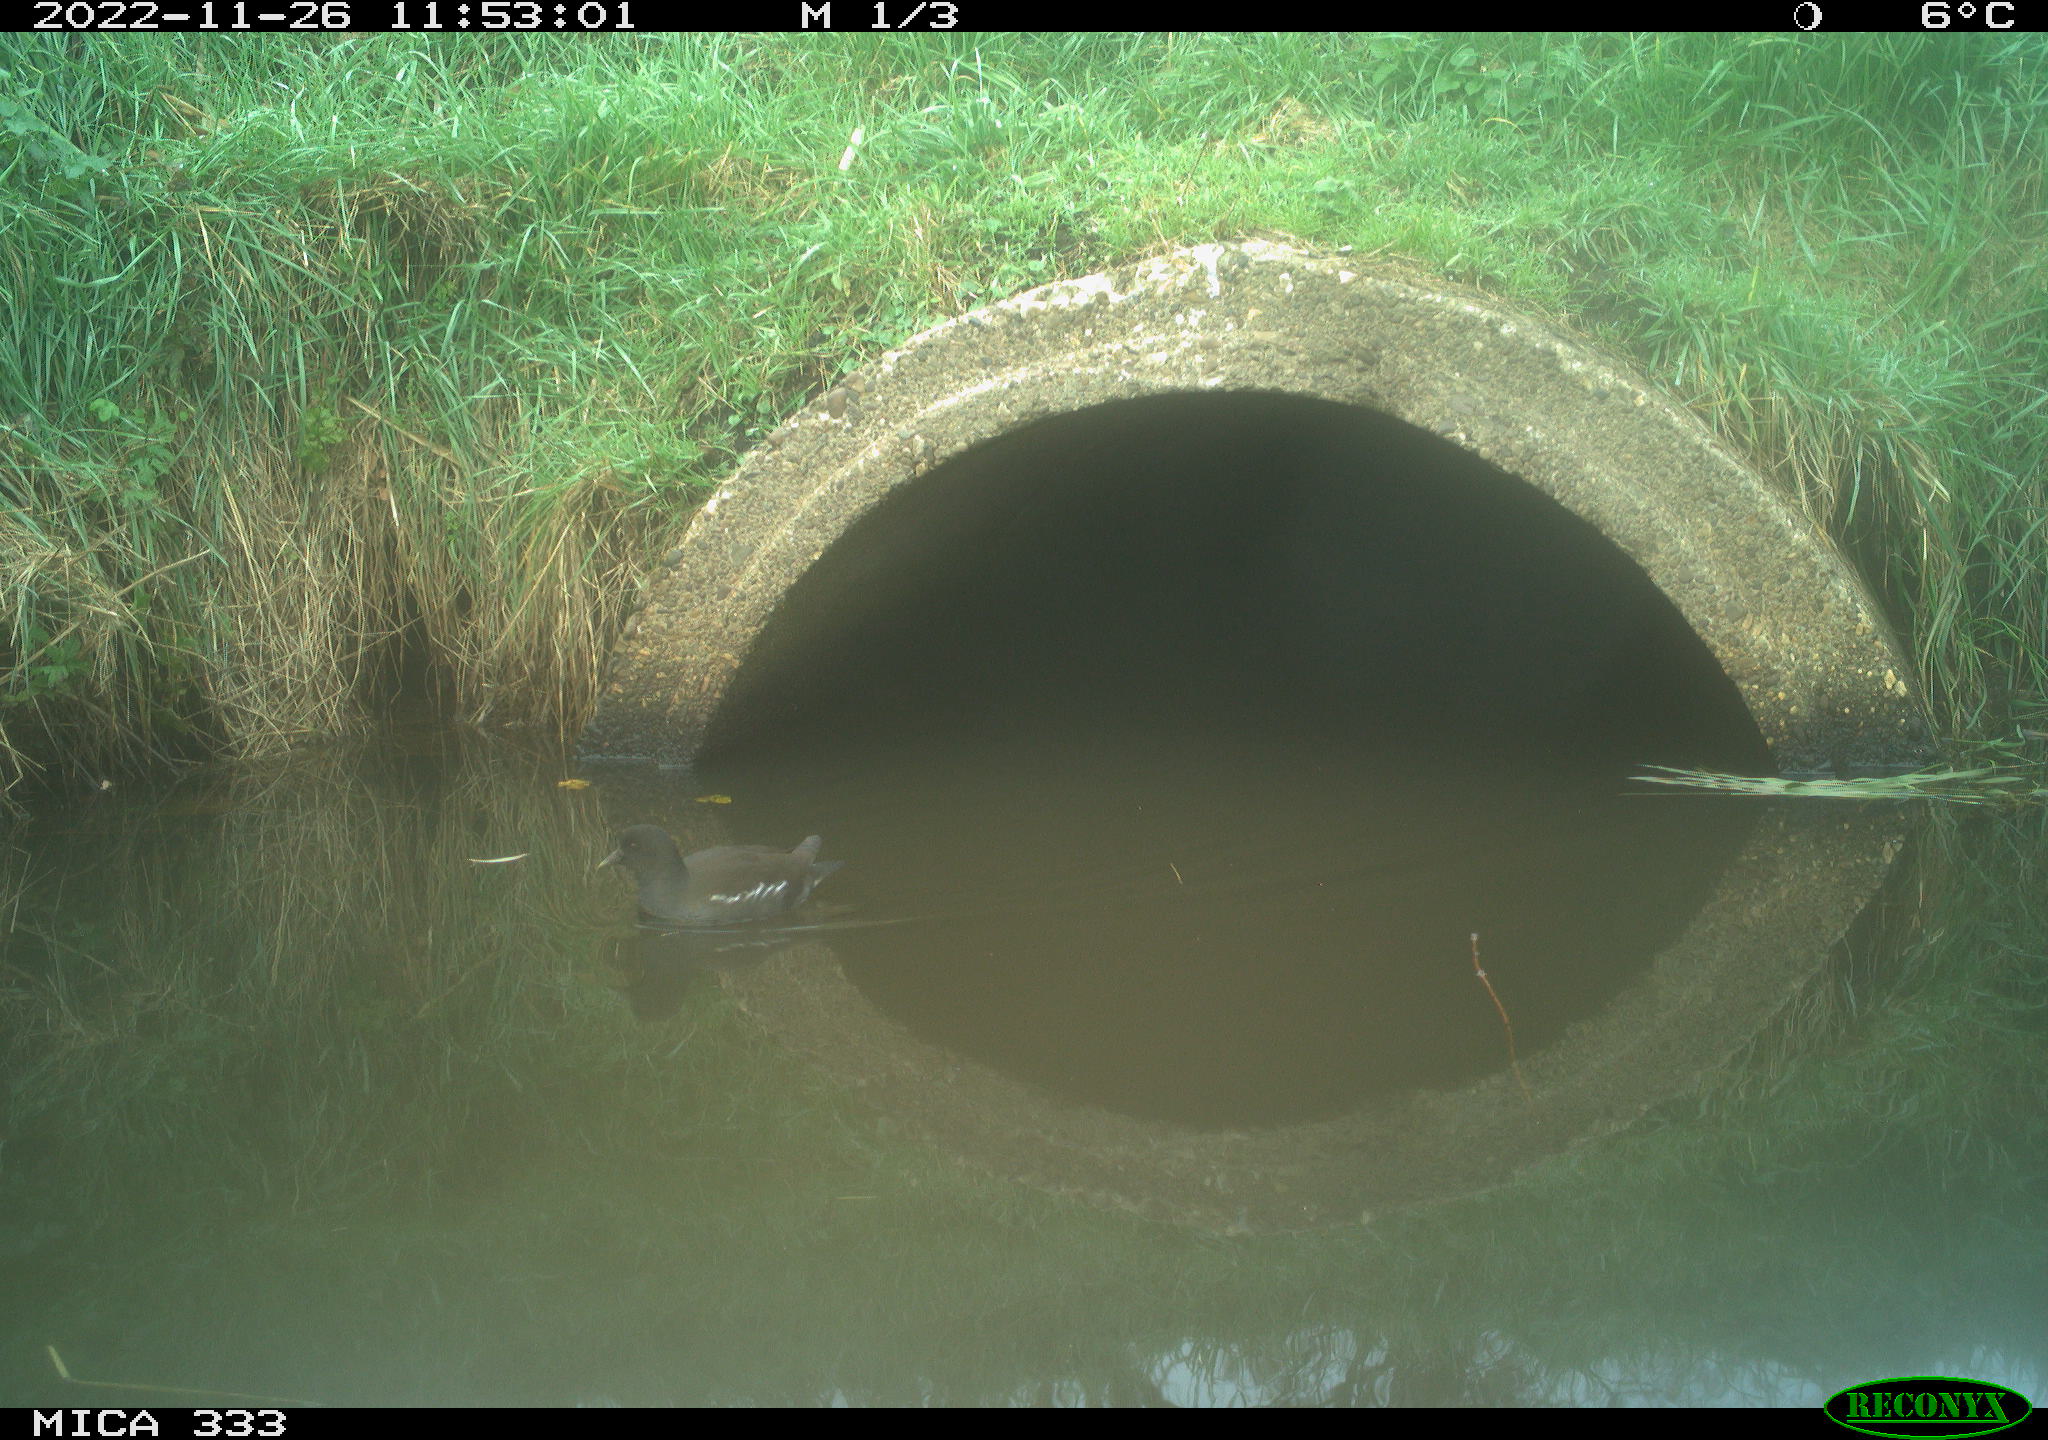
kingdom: Animalia
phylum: Chordata
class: Aves
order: Gruiformes
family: Rallidae
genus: Gallinula
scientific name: Gallinula chloropus
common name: Common moorhen
